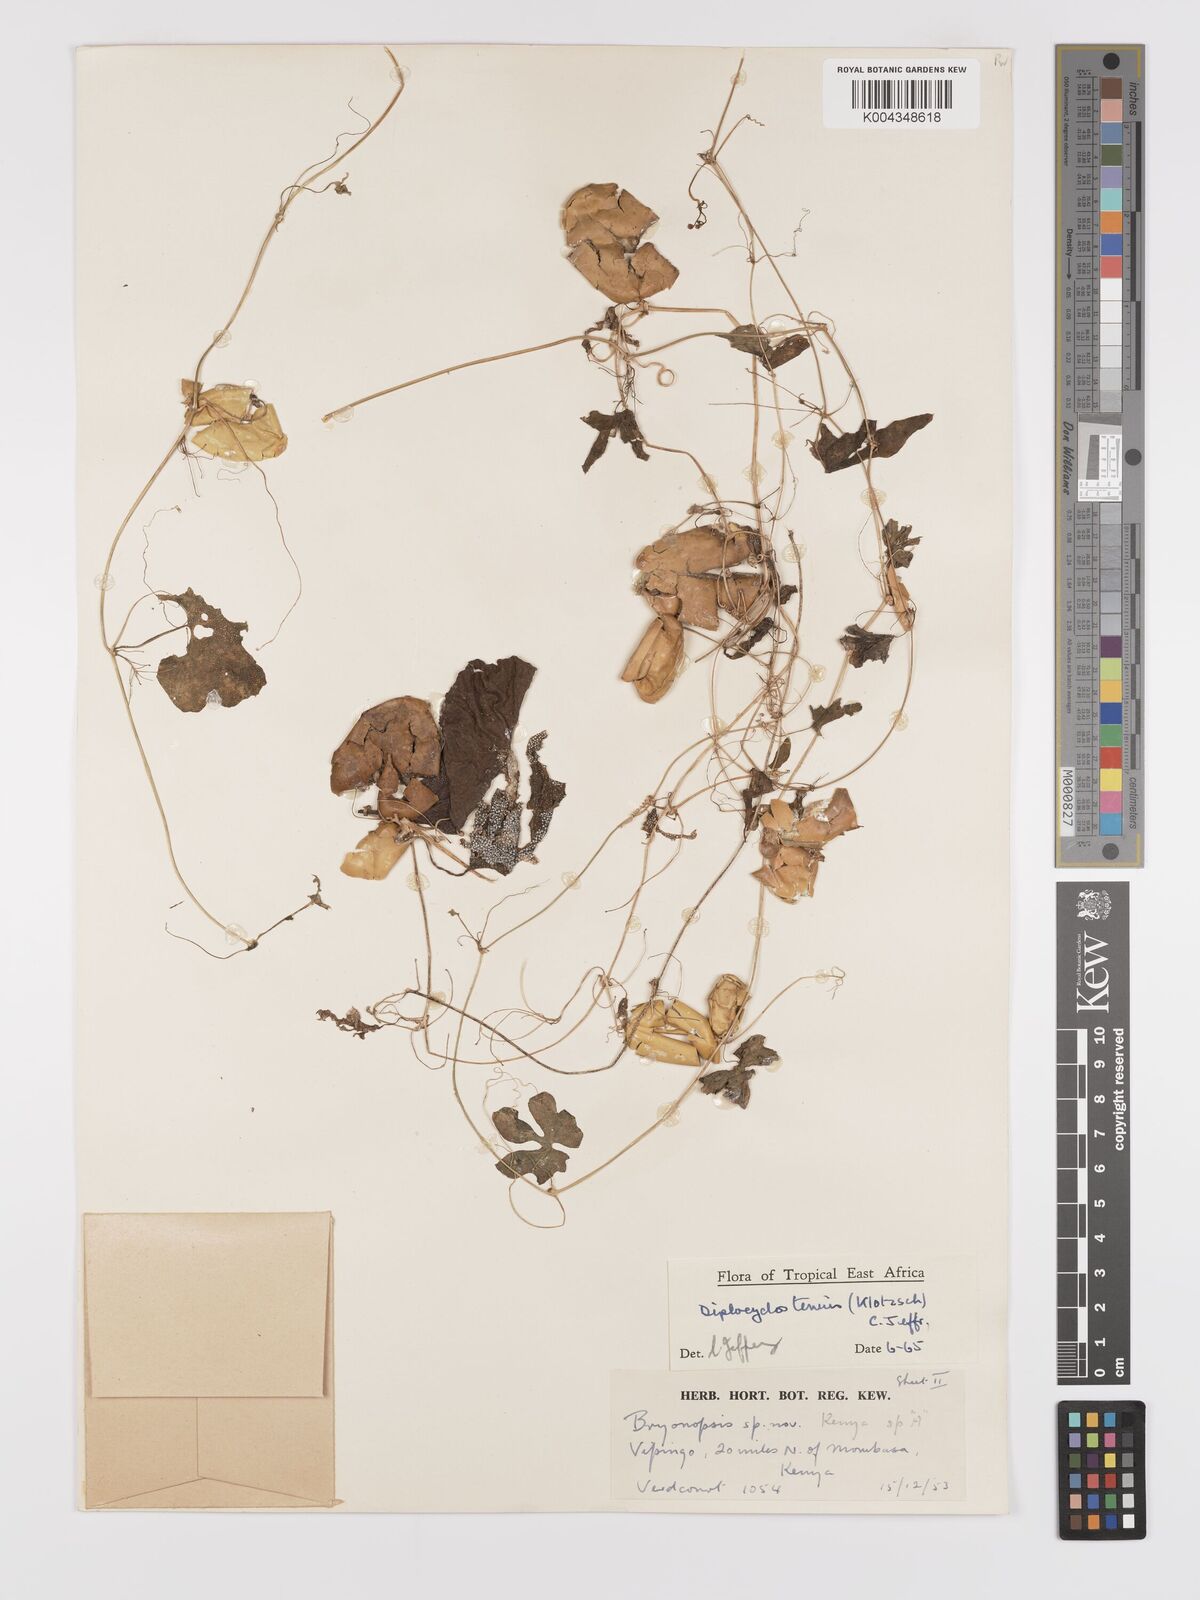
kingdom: Plantae
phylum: Tracheophyta
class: Magnoliopsida
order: Cucurbitales
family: Cucurbitaceae
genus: Diplocyclos
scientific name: Diplocyclos tenuis
